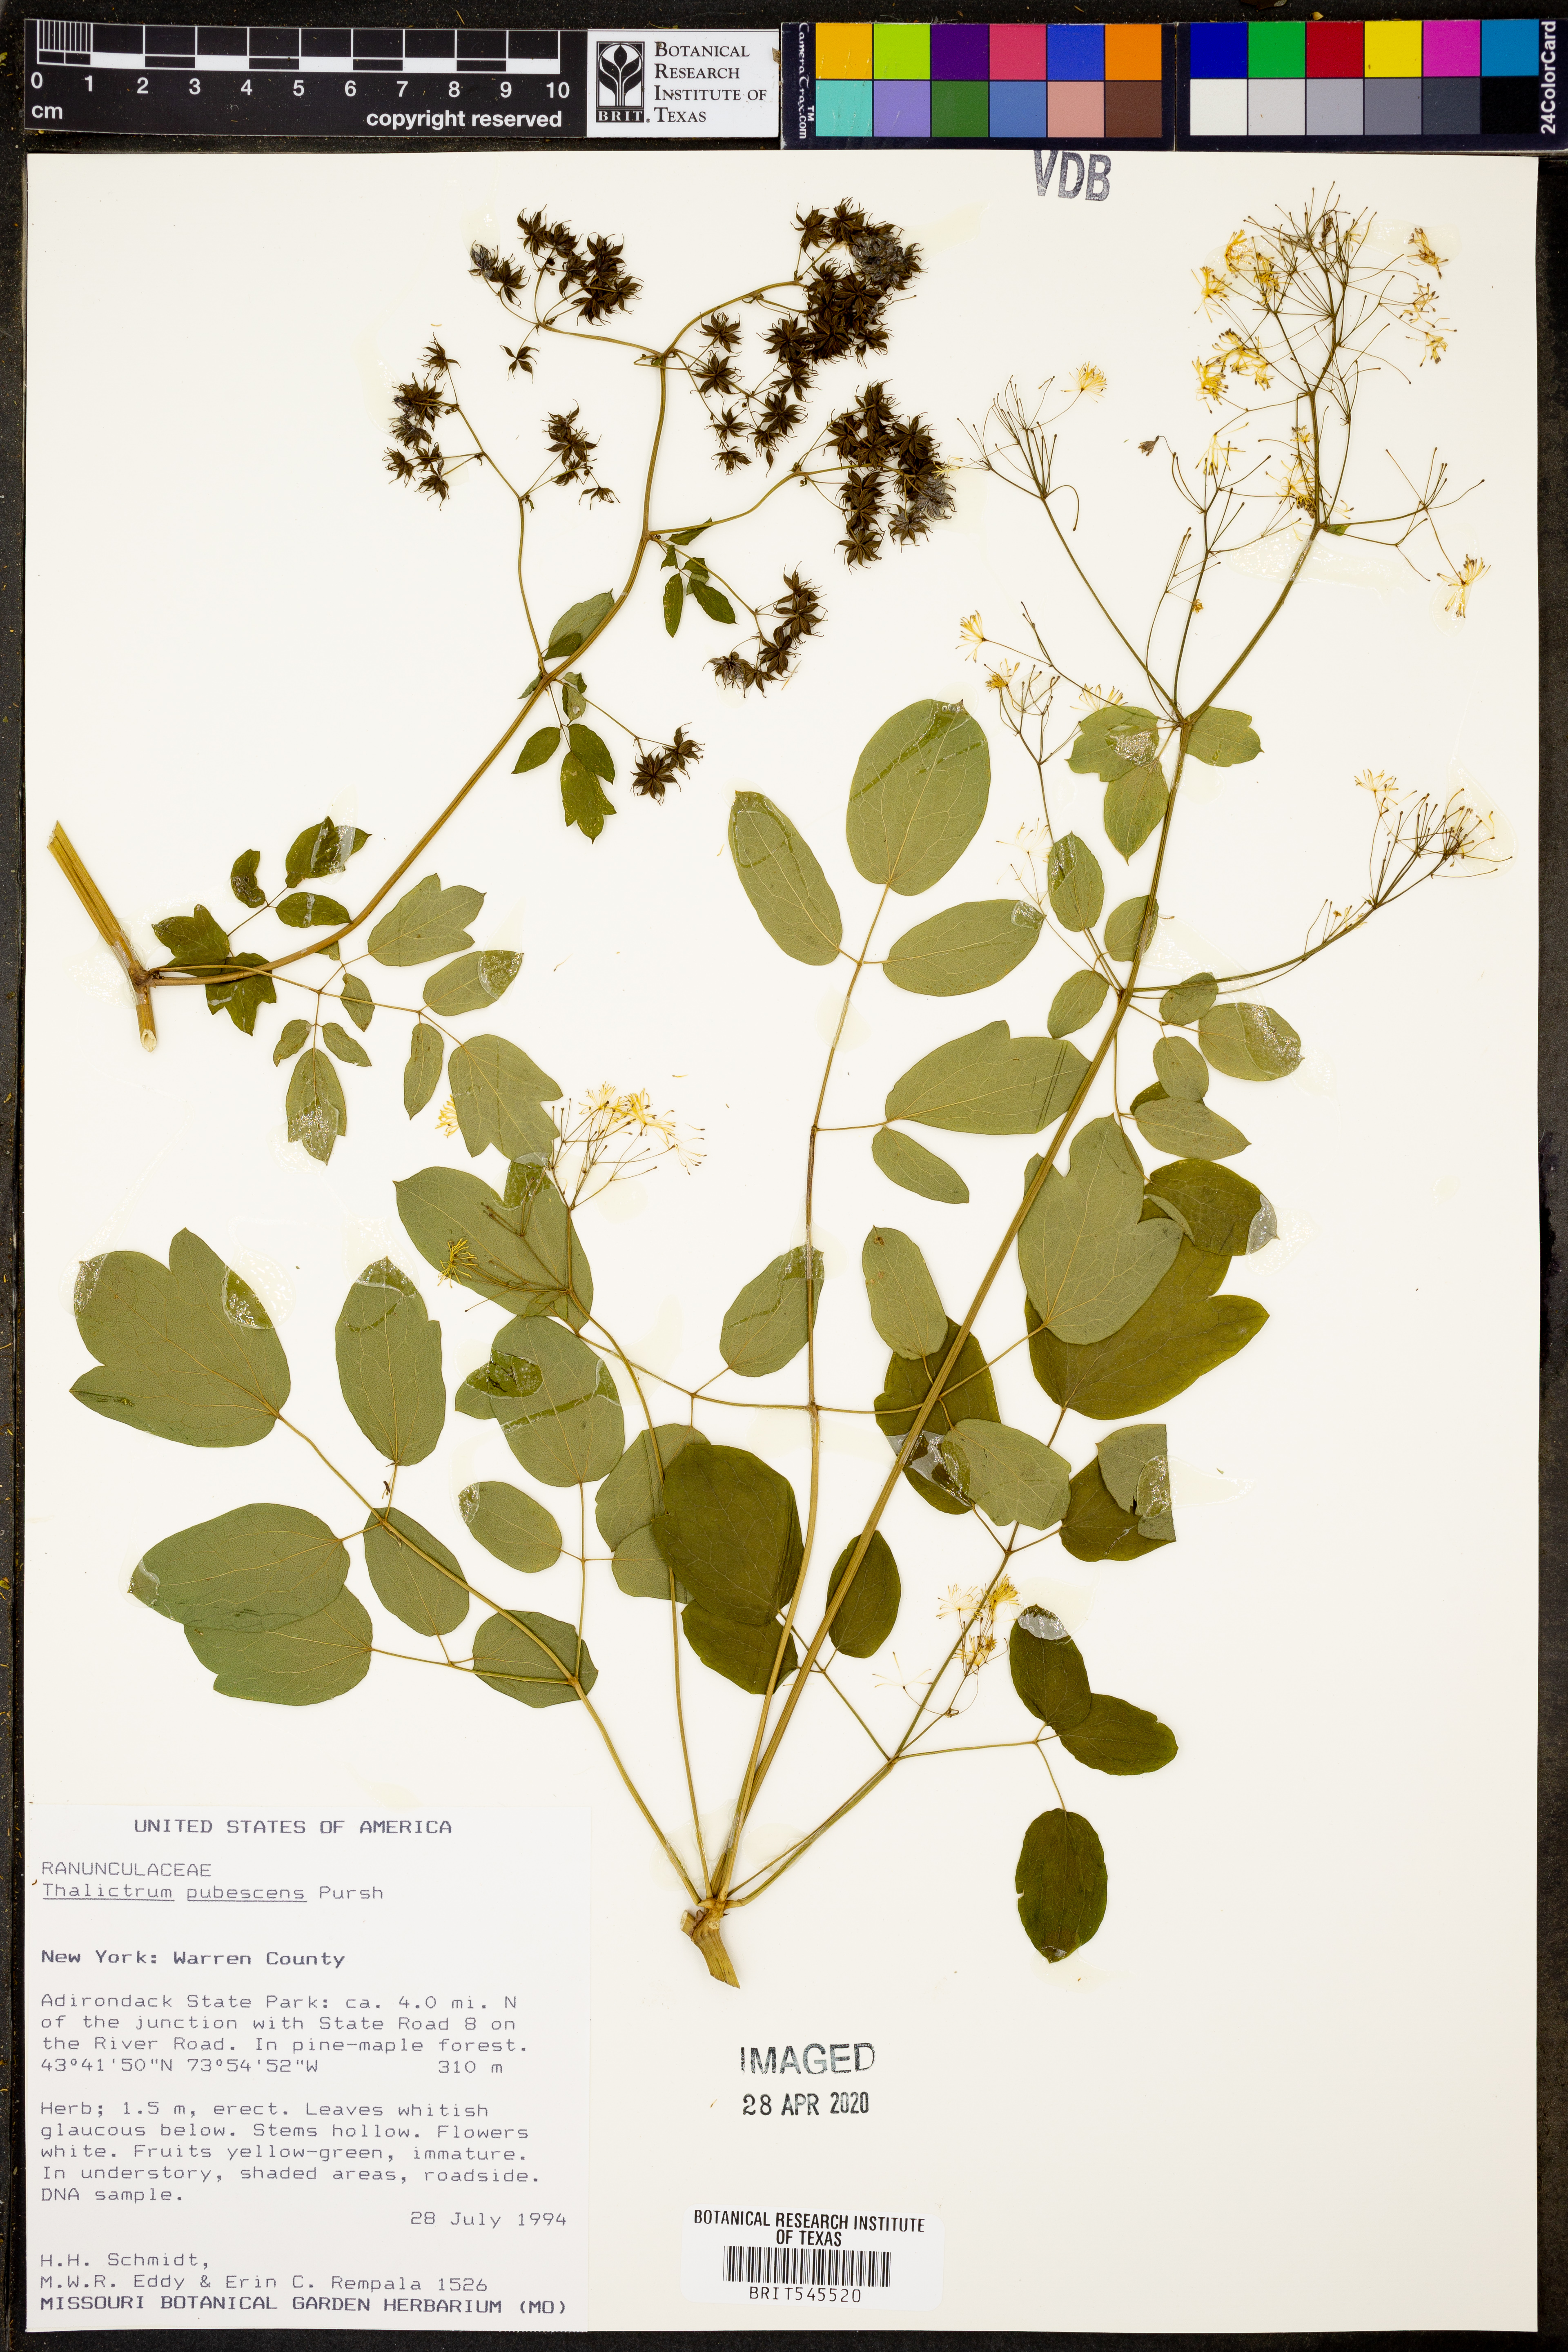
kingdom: Plantae
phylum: Tracheophyta
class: Magnoliopsida
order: Ranunculales
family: Ranunculaceae
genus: Thalictrum
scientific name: Thalictrum pubescens
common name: King-of-the-meadow
